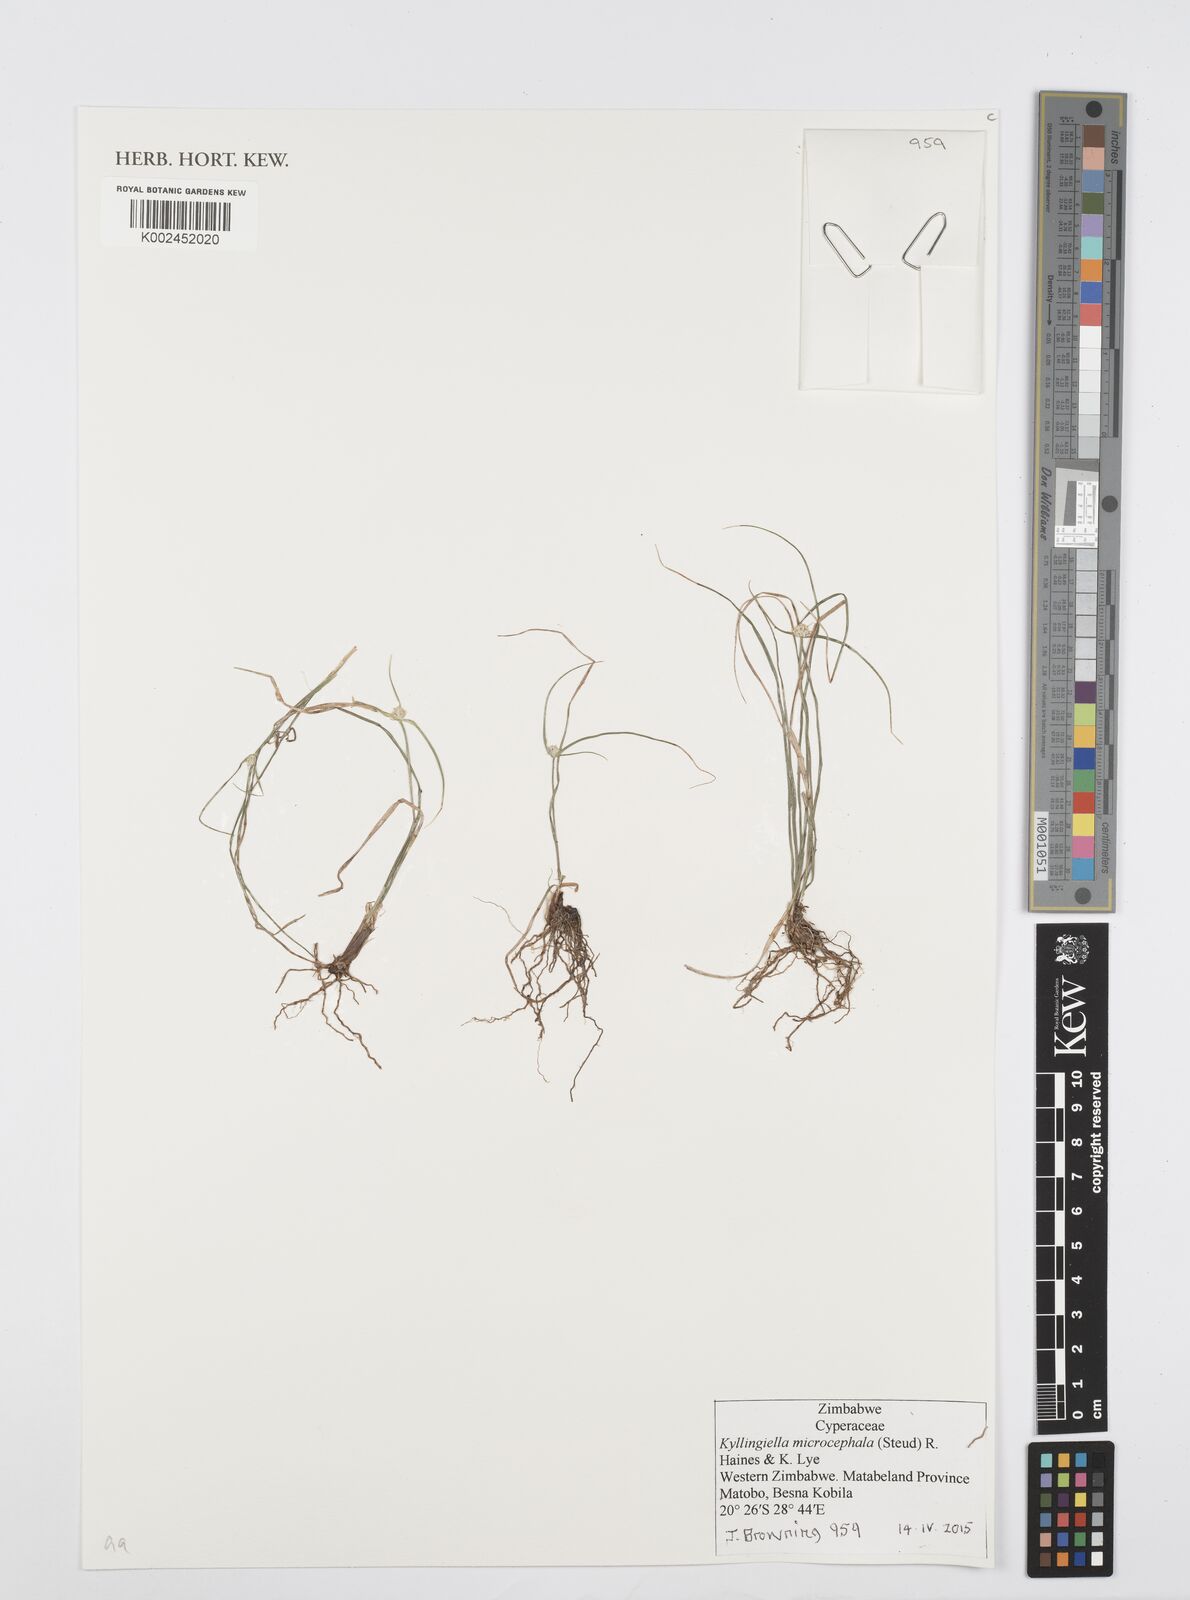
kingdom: Plantae
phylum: Tracheophyta
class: Liliopsida
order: Poales
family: Cyperaceae
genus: Cyperus
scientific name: Cyperus conglobatus
